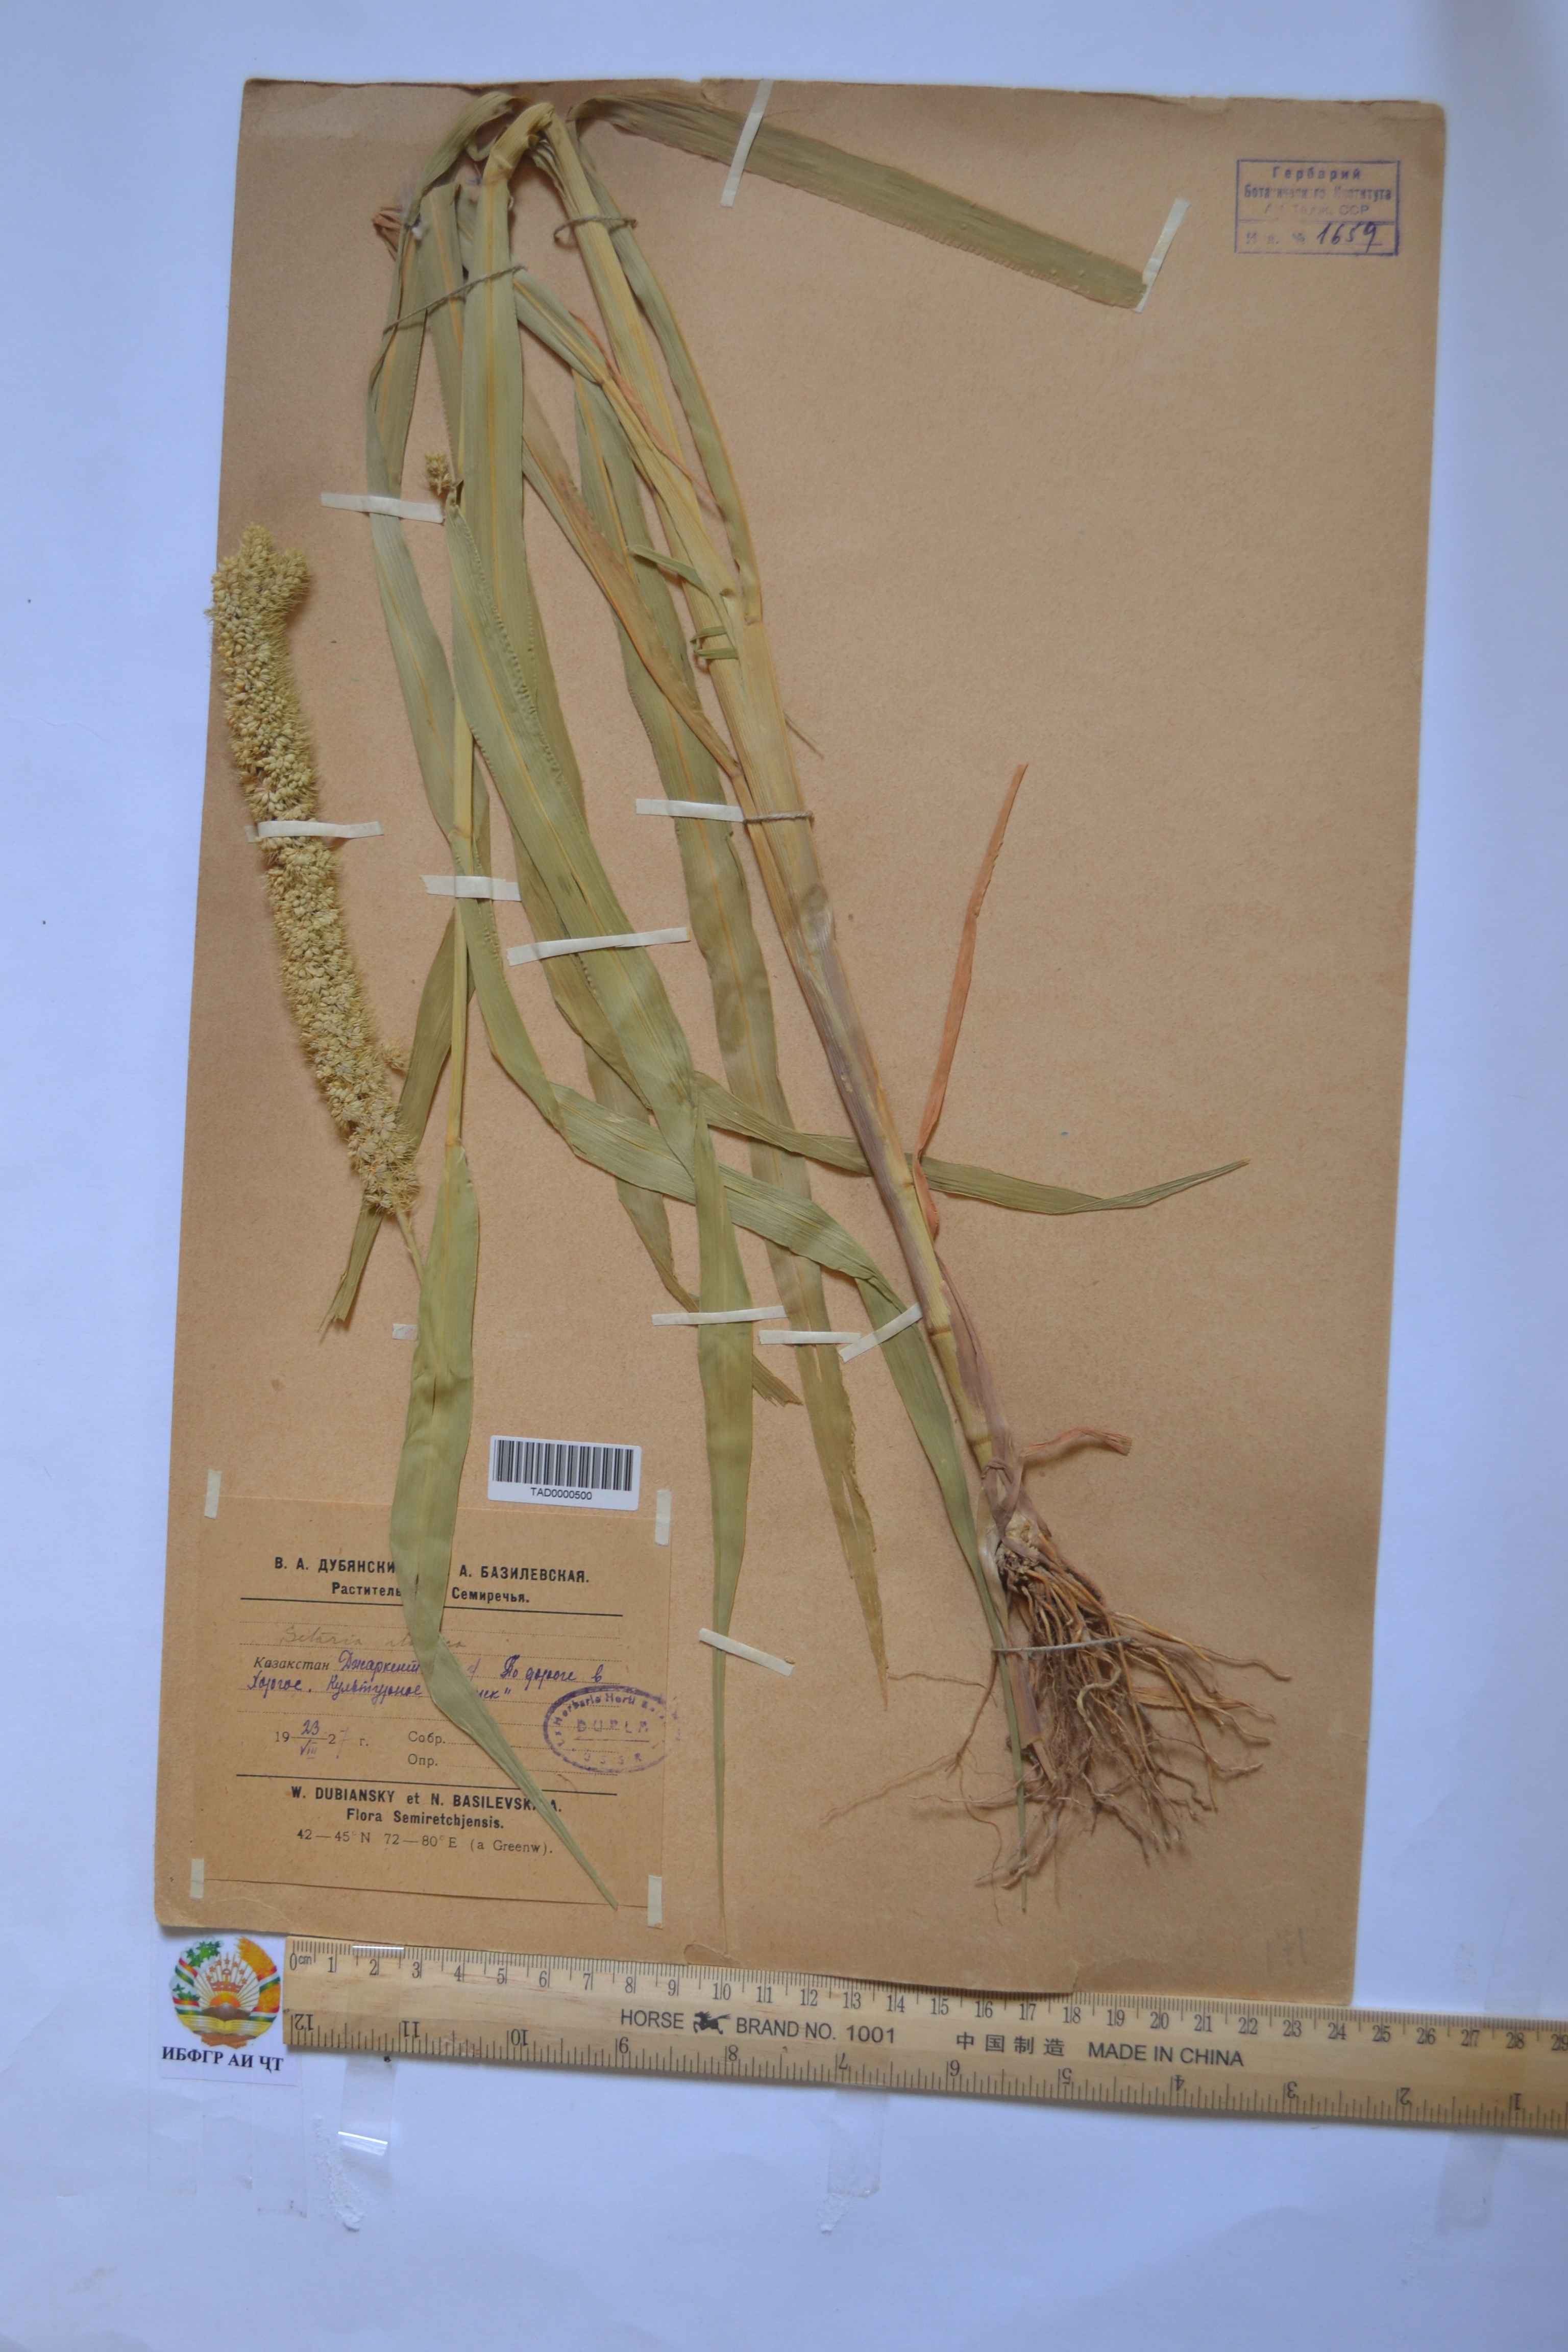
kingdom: Plantae
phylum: Tracheophyta
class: Liliopsida
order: Poales
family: Poaceae
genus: Setaria
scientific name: Setaria italica
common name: Foxtail bristle-grass
